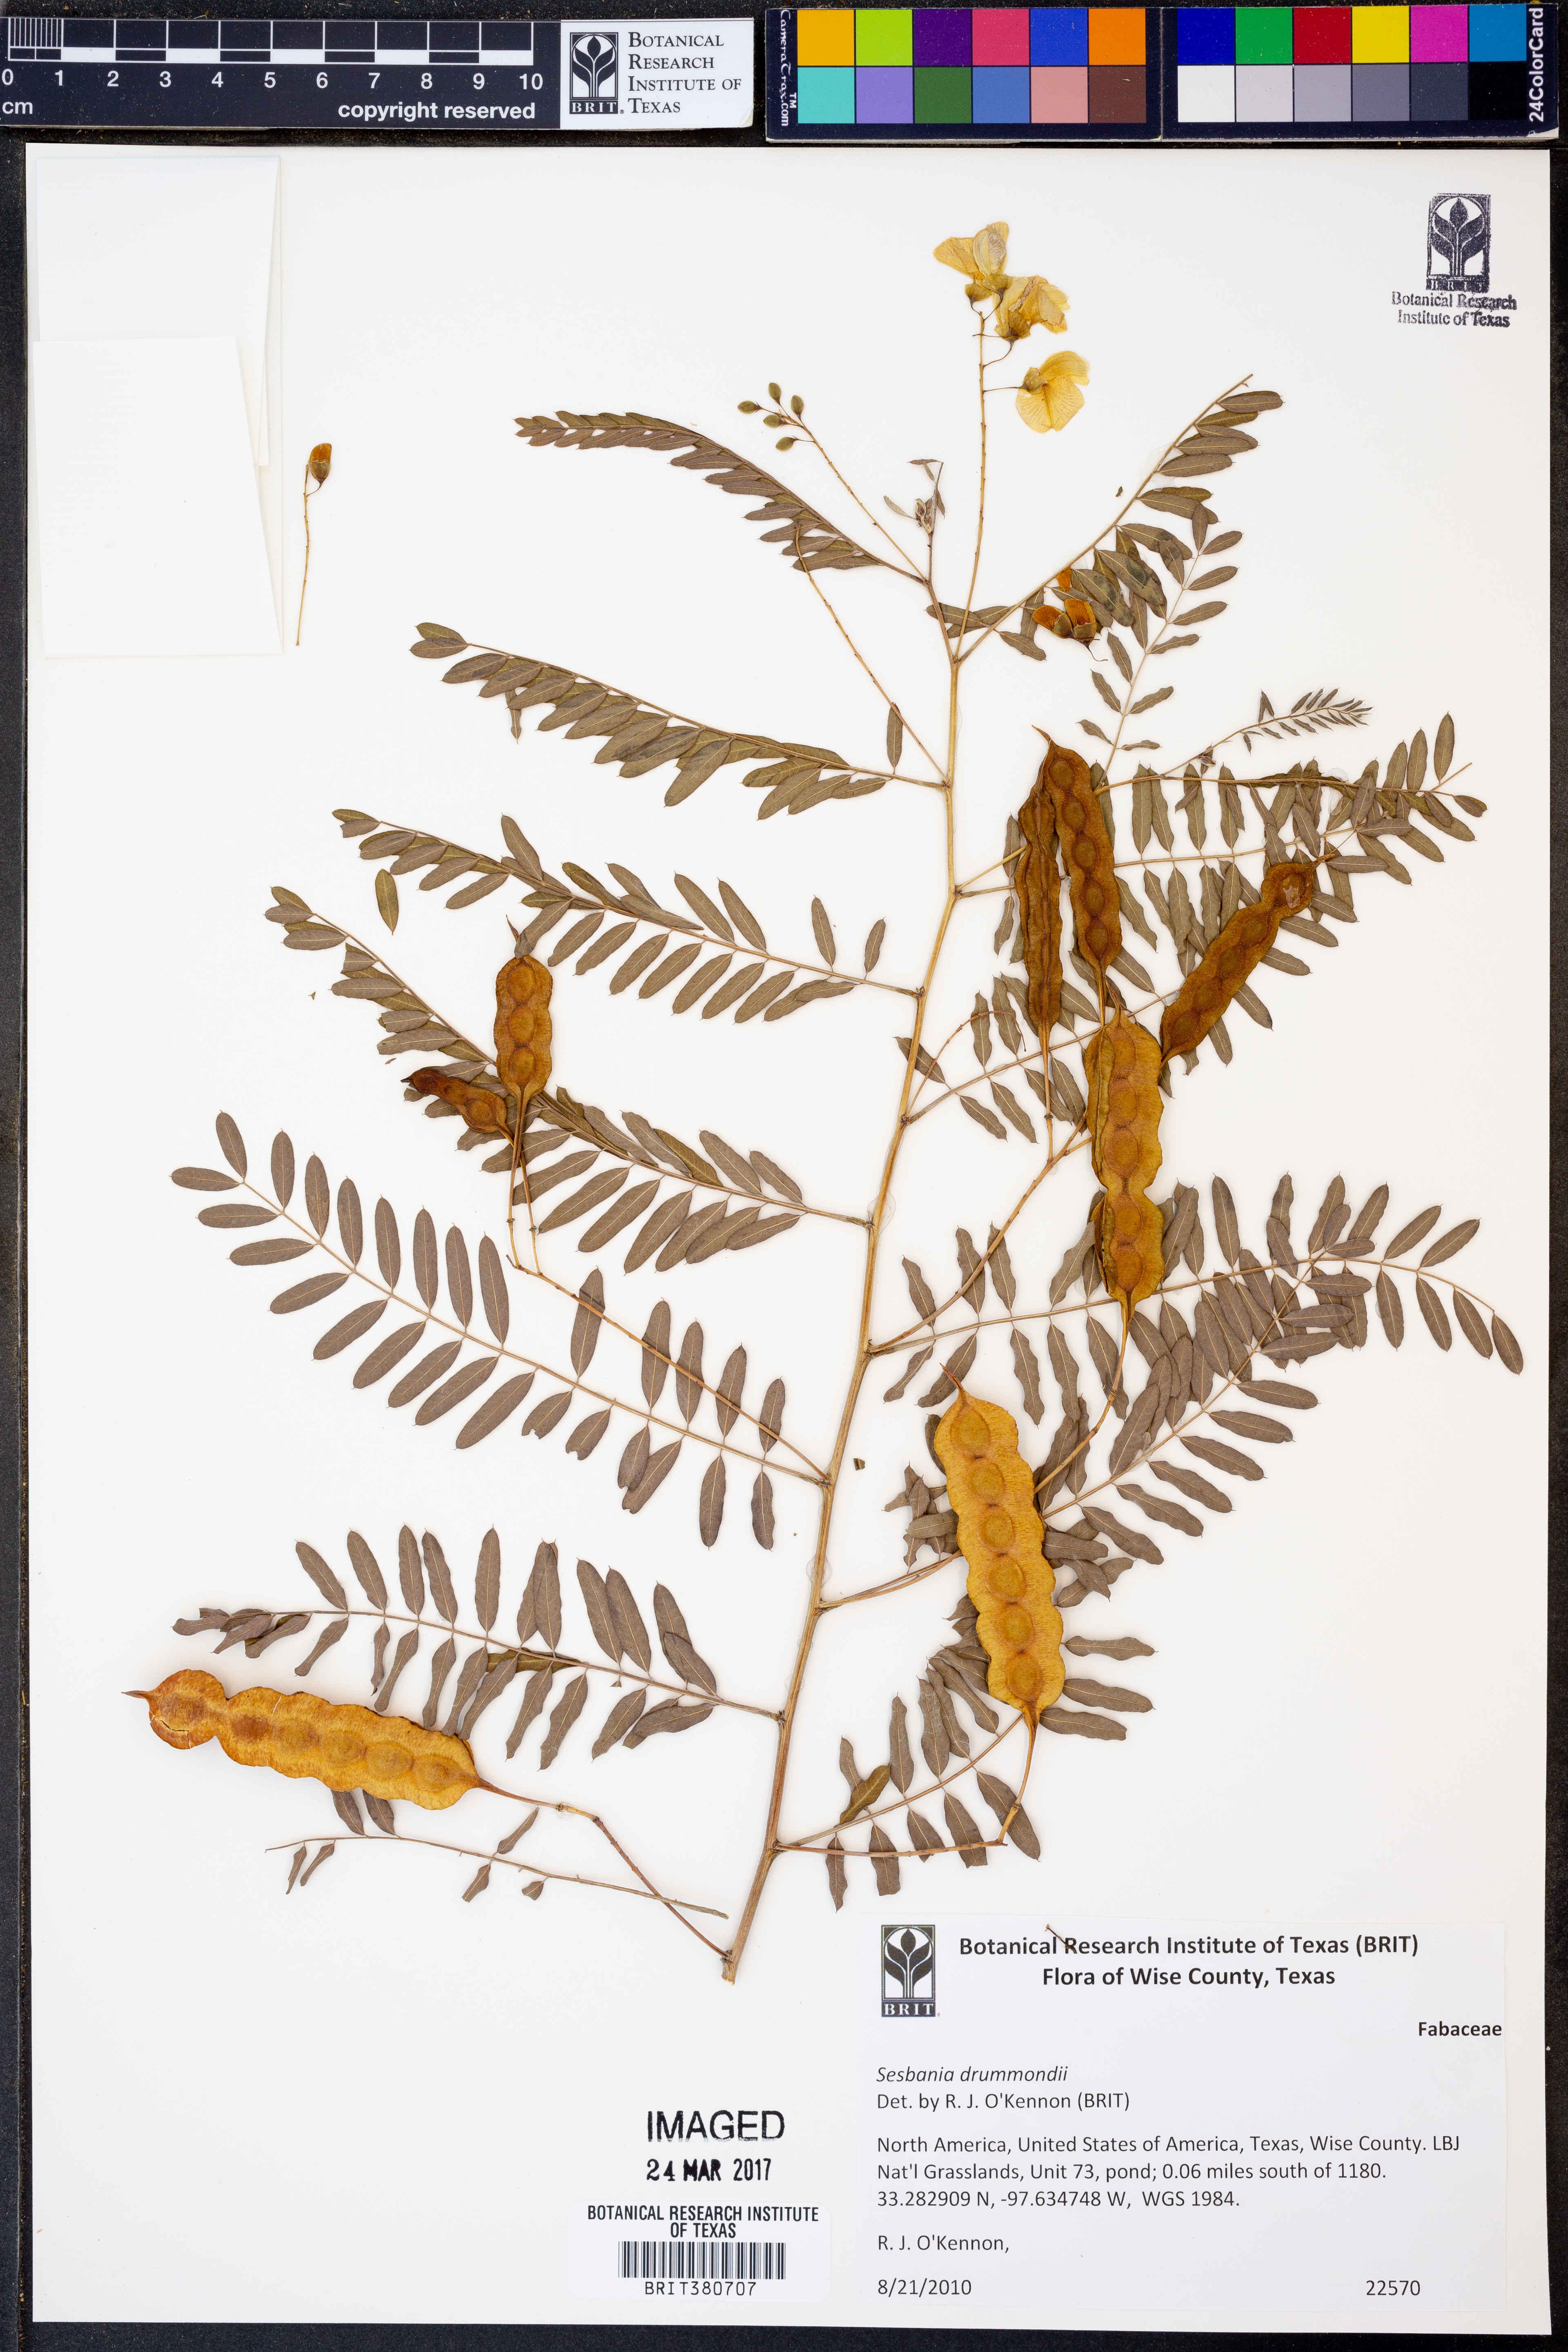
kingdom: Plantae
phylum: Tracheophyta
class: Magnoliopsida
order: Fabales
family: Fabaceae
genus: Sesbania
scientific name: Sesbania drummondii
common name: Poison-bean
